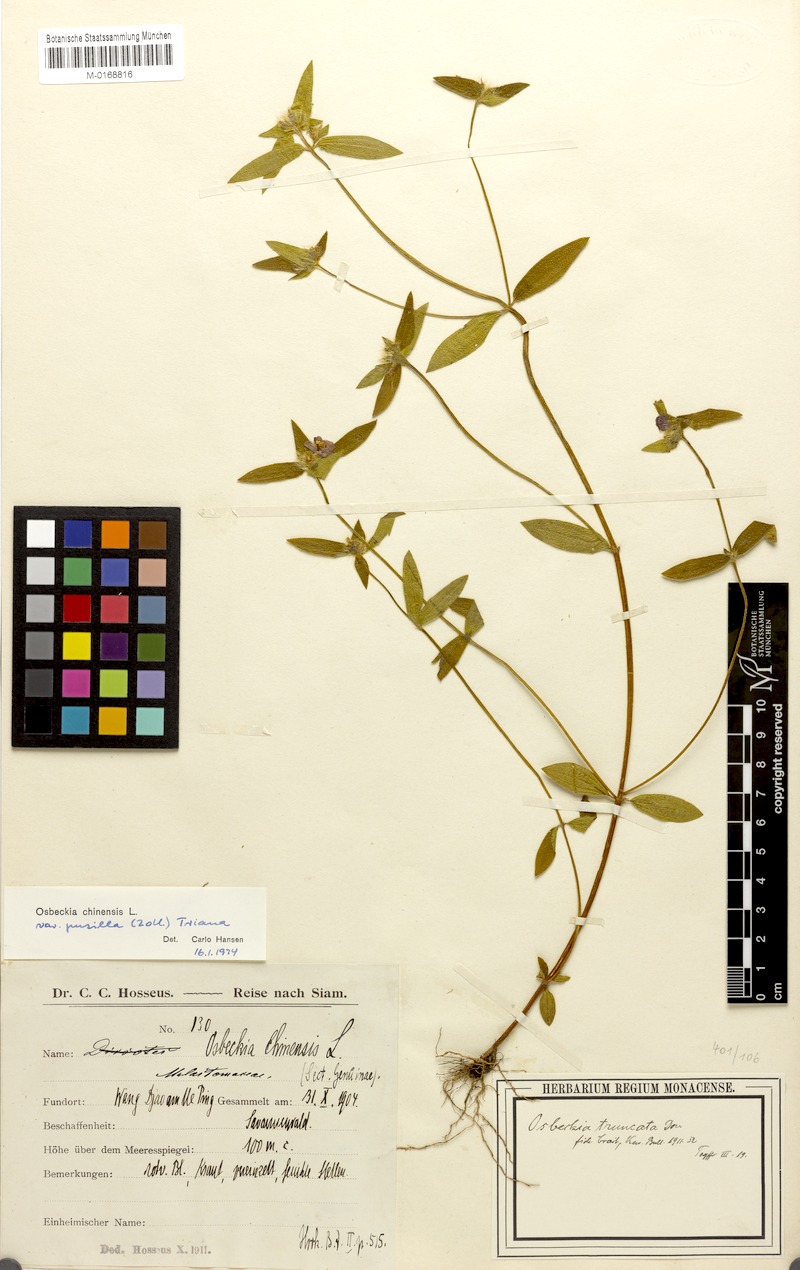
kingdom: Plantae
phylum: Tracheophyta
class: Magnoliopsida
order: Myrtales
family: Melastomataceae
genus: Osbeckia
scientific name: Osbeckia chinensis
